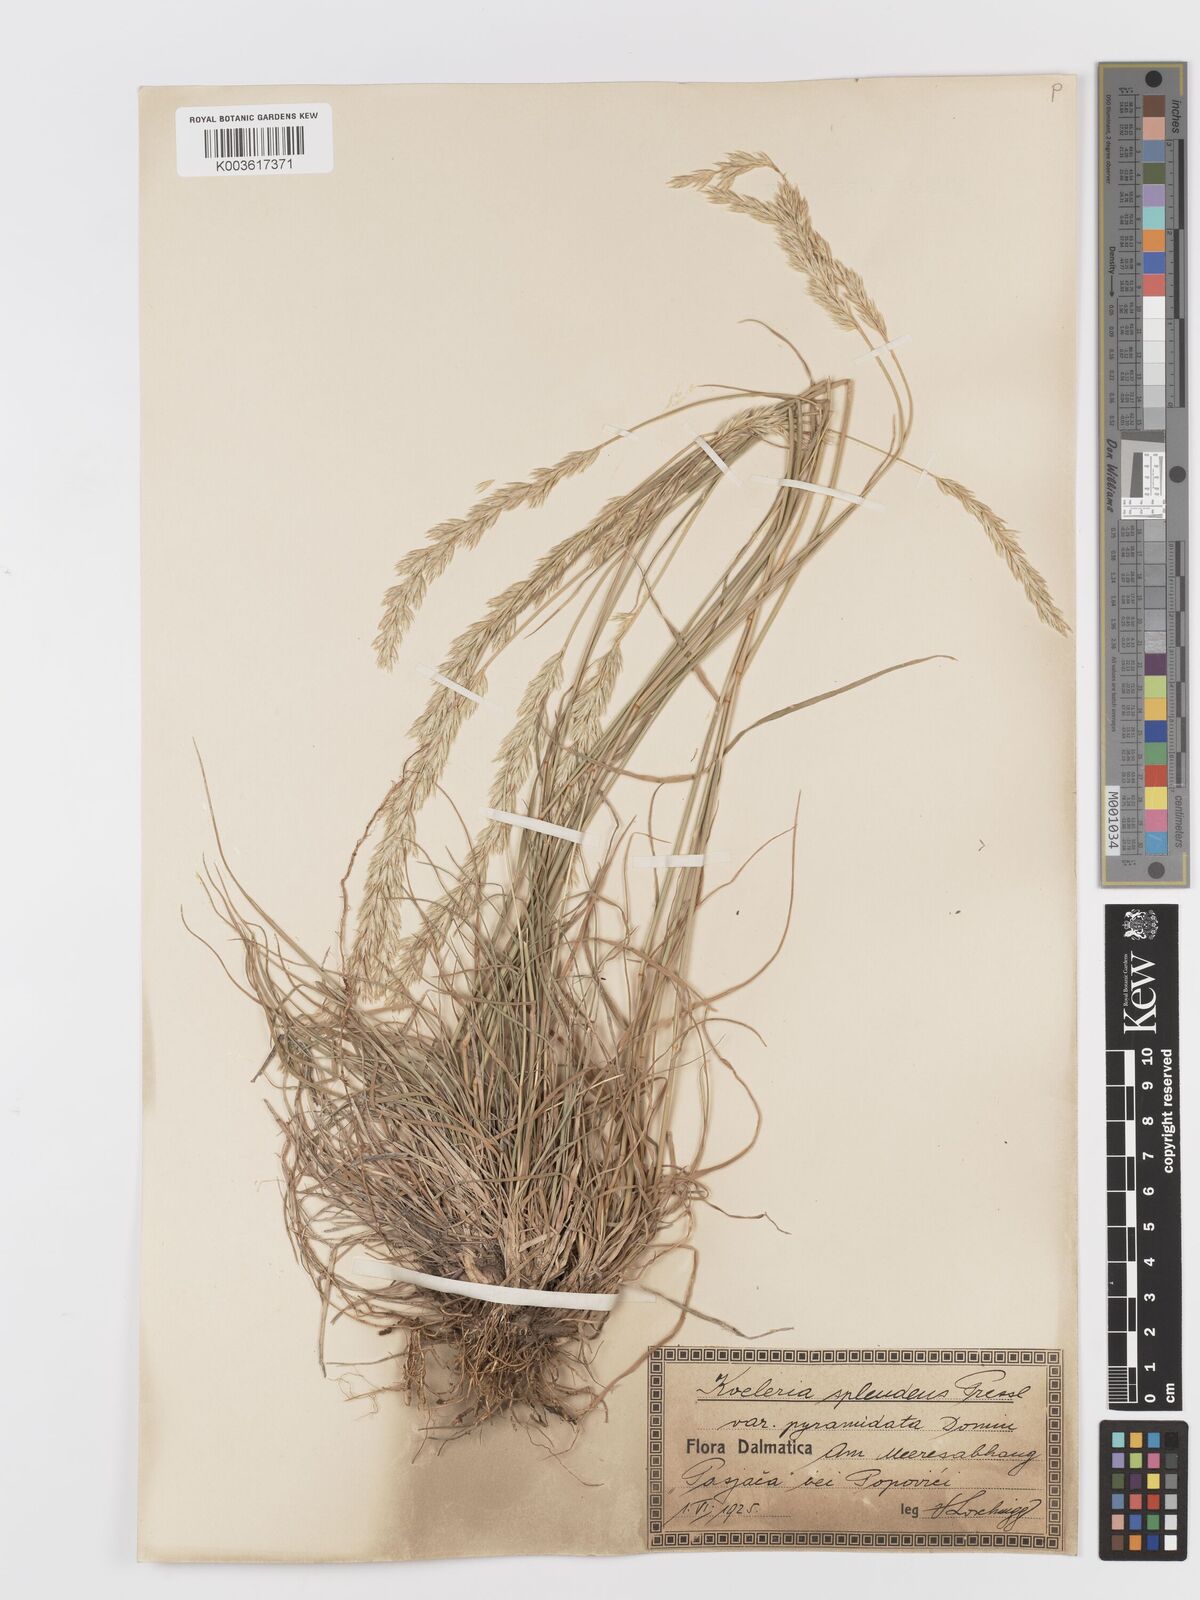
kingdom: Plantae
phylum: Tracheophyta
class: Liliopsida
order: Poales
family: Poaceae
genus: Koeleria
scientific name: Koeleria
